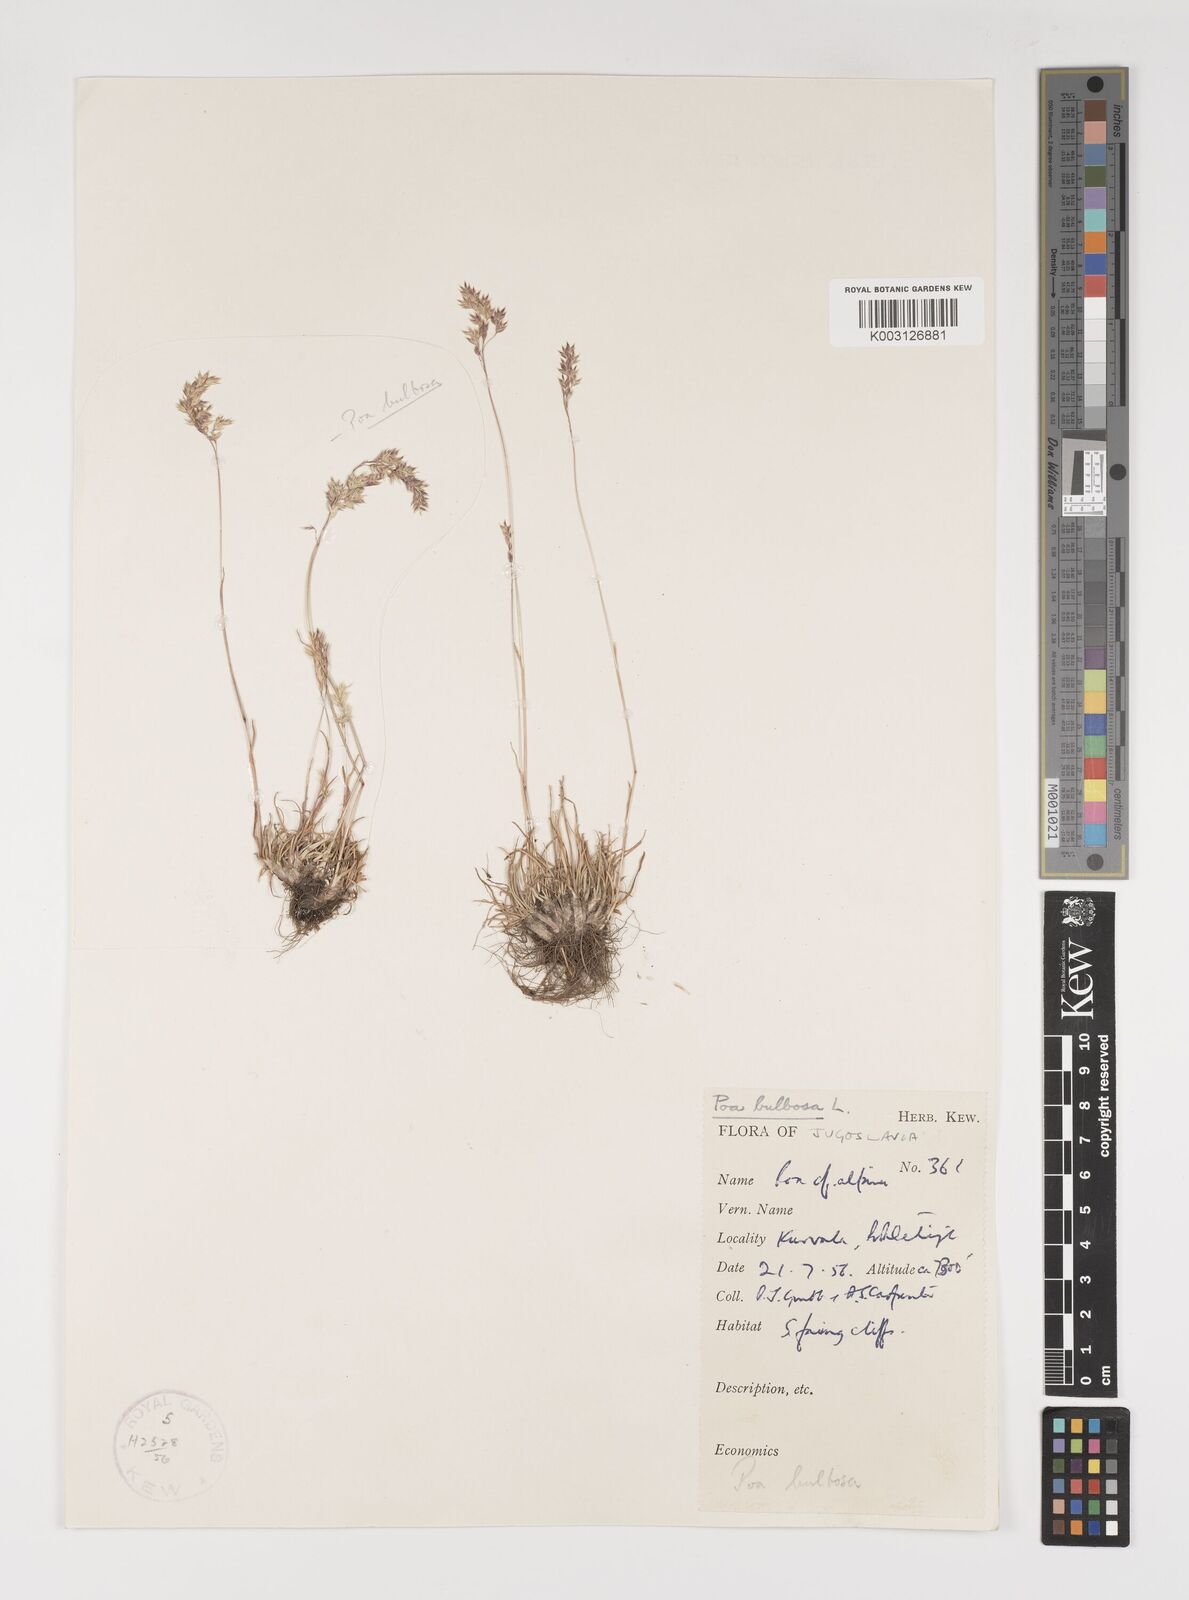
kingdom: Plantae
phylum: Tracheophyta
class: Liliopsida
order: Poales
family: Poaceae
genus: Poa
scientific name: Poa bulbosa
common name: Bulbous bluegrass
